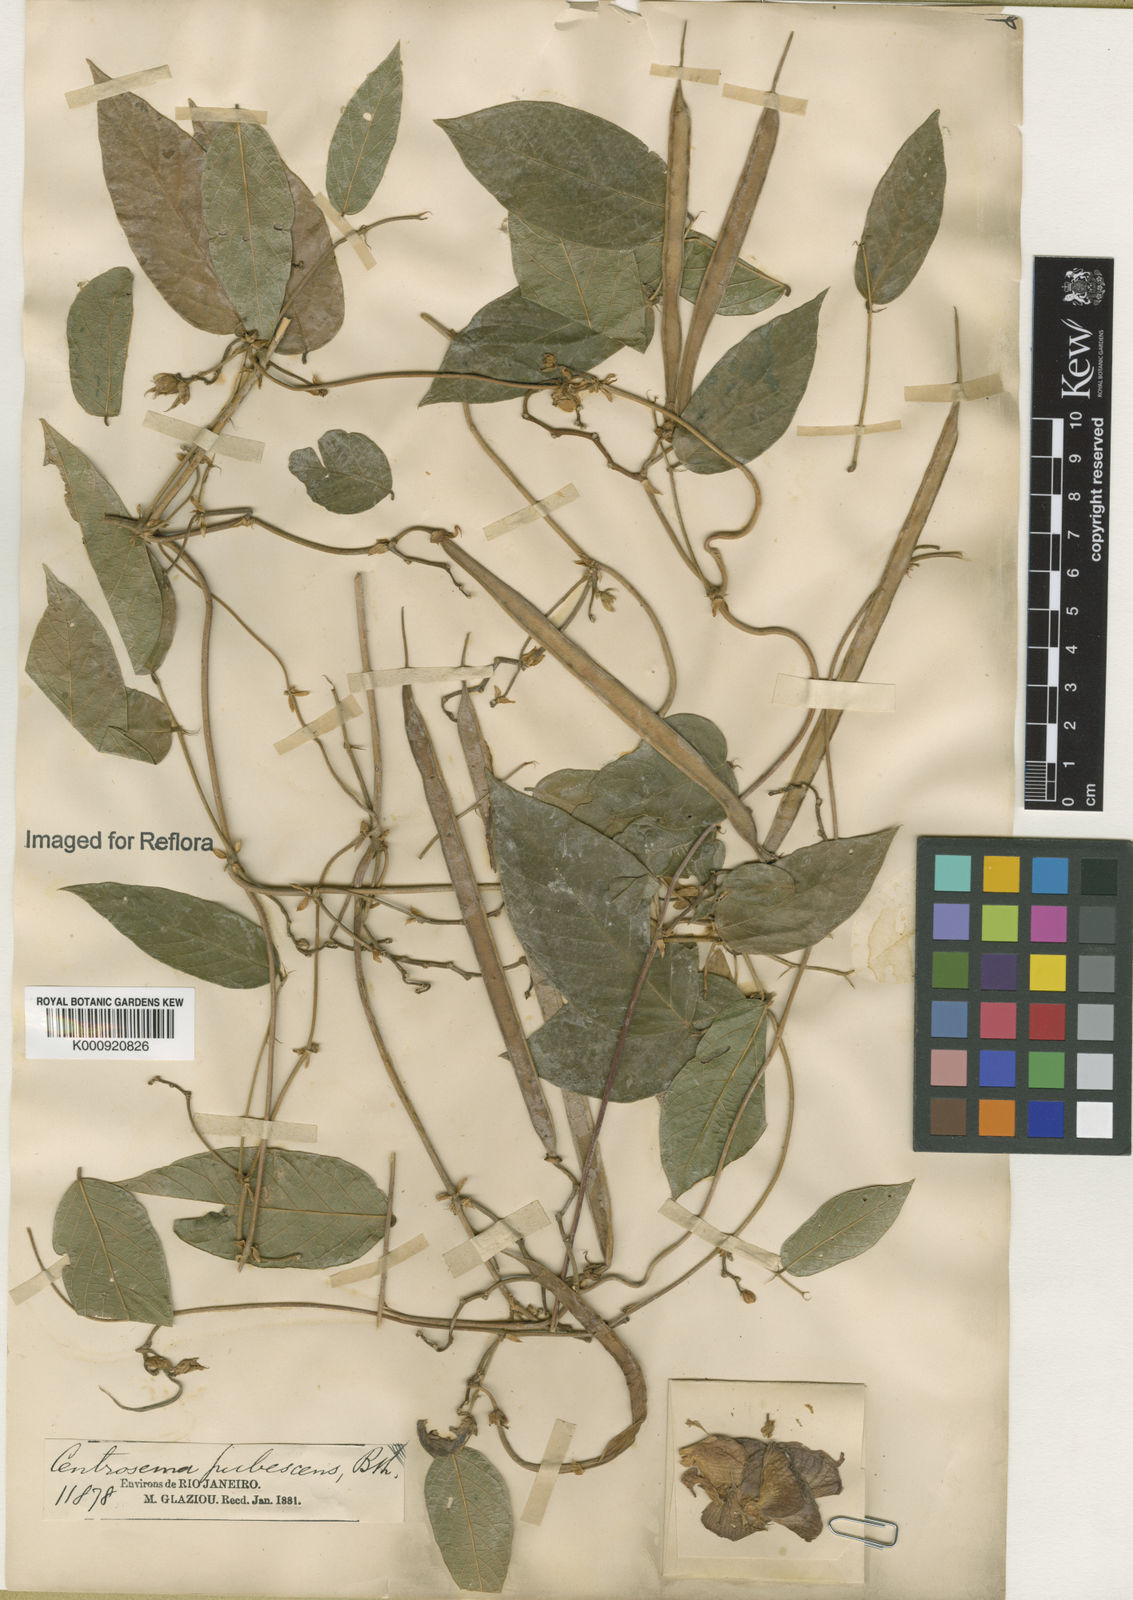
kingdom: Plantae
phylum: Tracheophyta
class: Magnoliopsida
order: Fabales
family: Fabaceae
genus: Centrosema
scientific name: Centrosema pubescens
